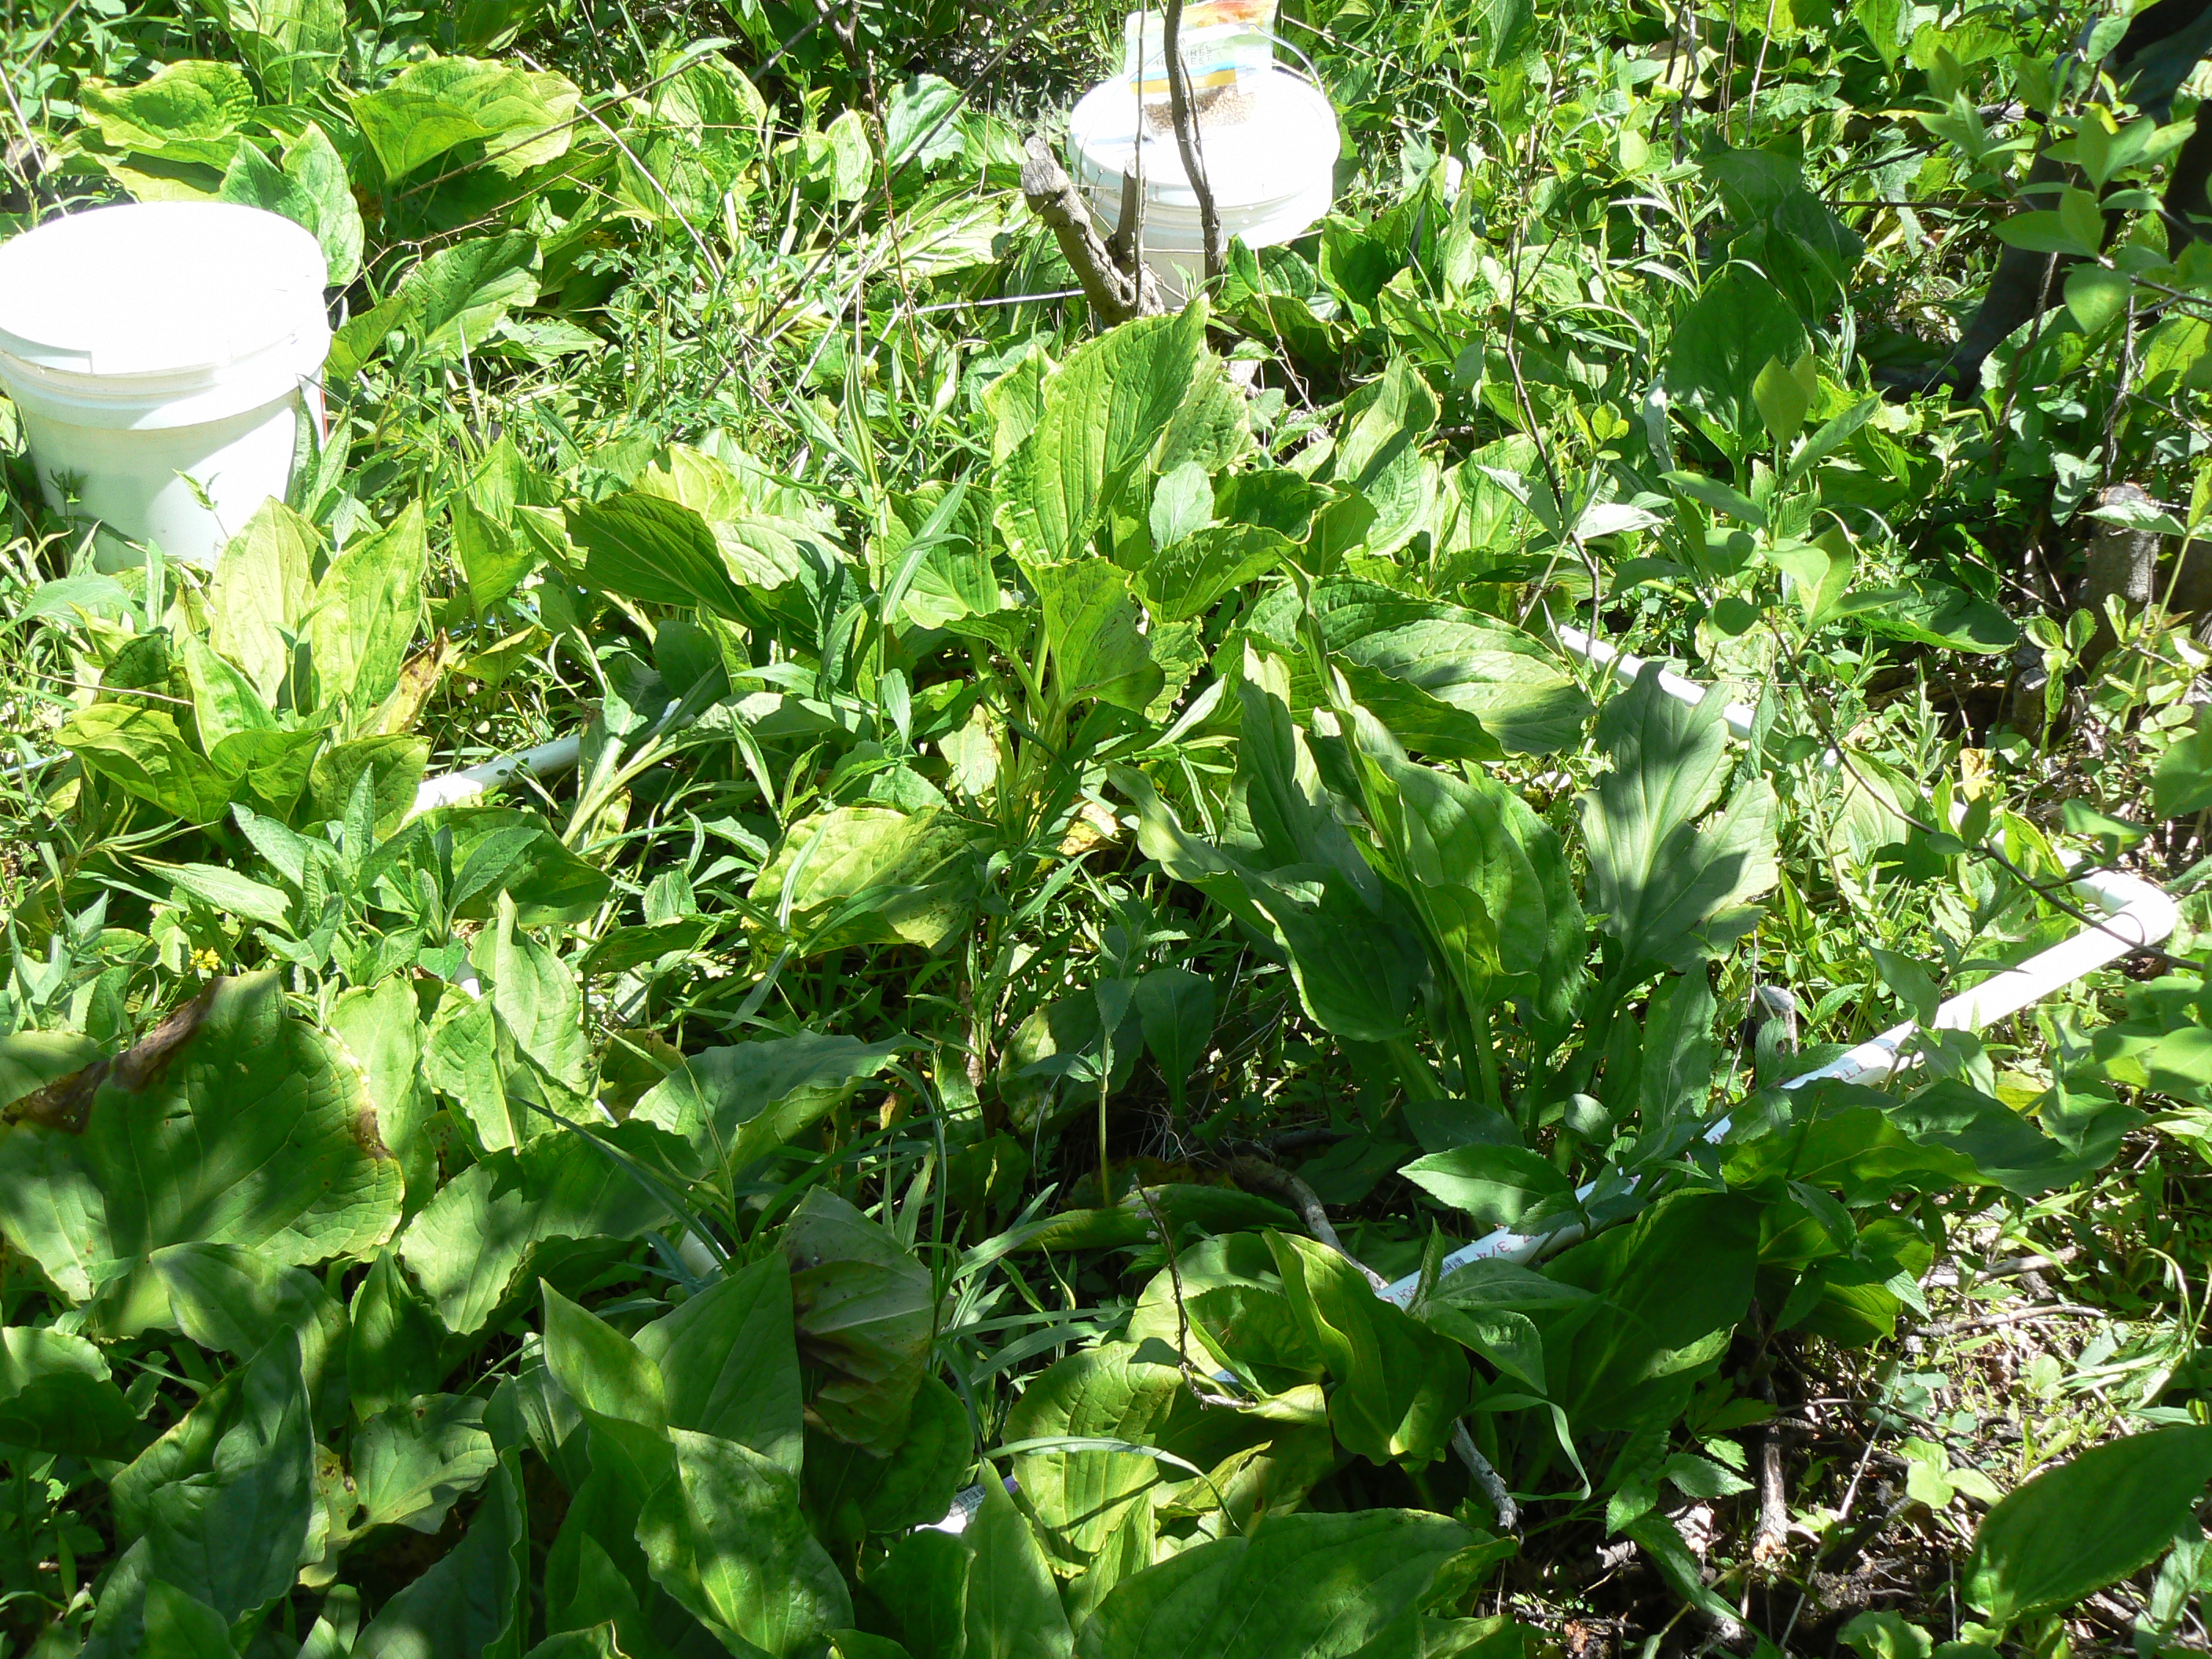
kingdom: Plantae
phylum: Tracheophyta
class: Magnoliopsida
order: Ericales
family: Balsaminaceae
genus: Impatiens
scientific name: Impatiens capensis
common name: Orange balsam
